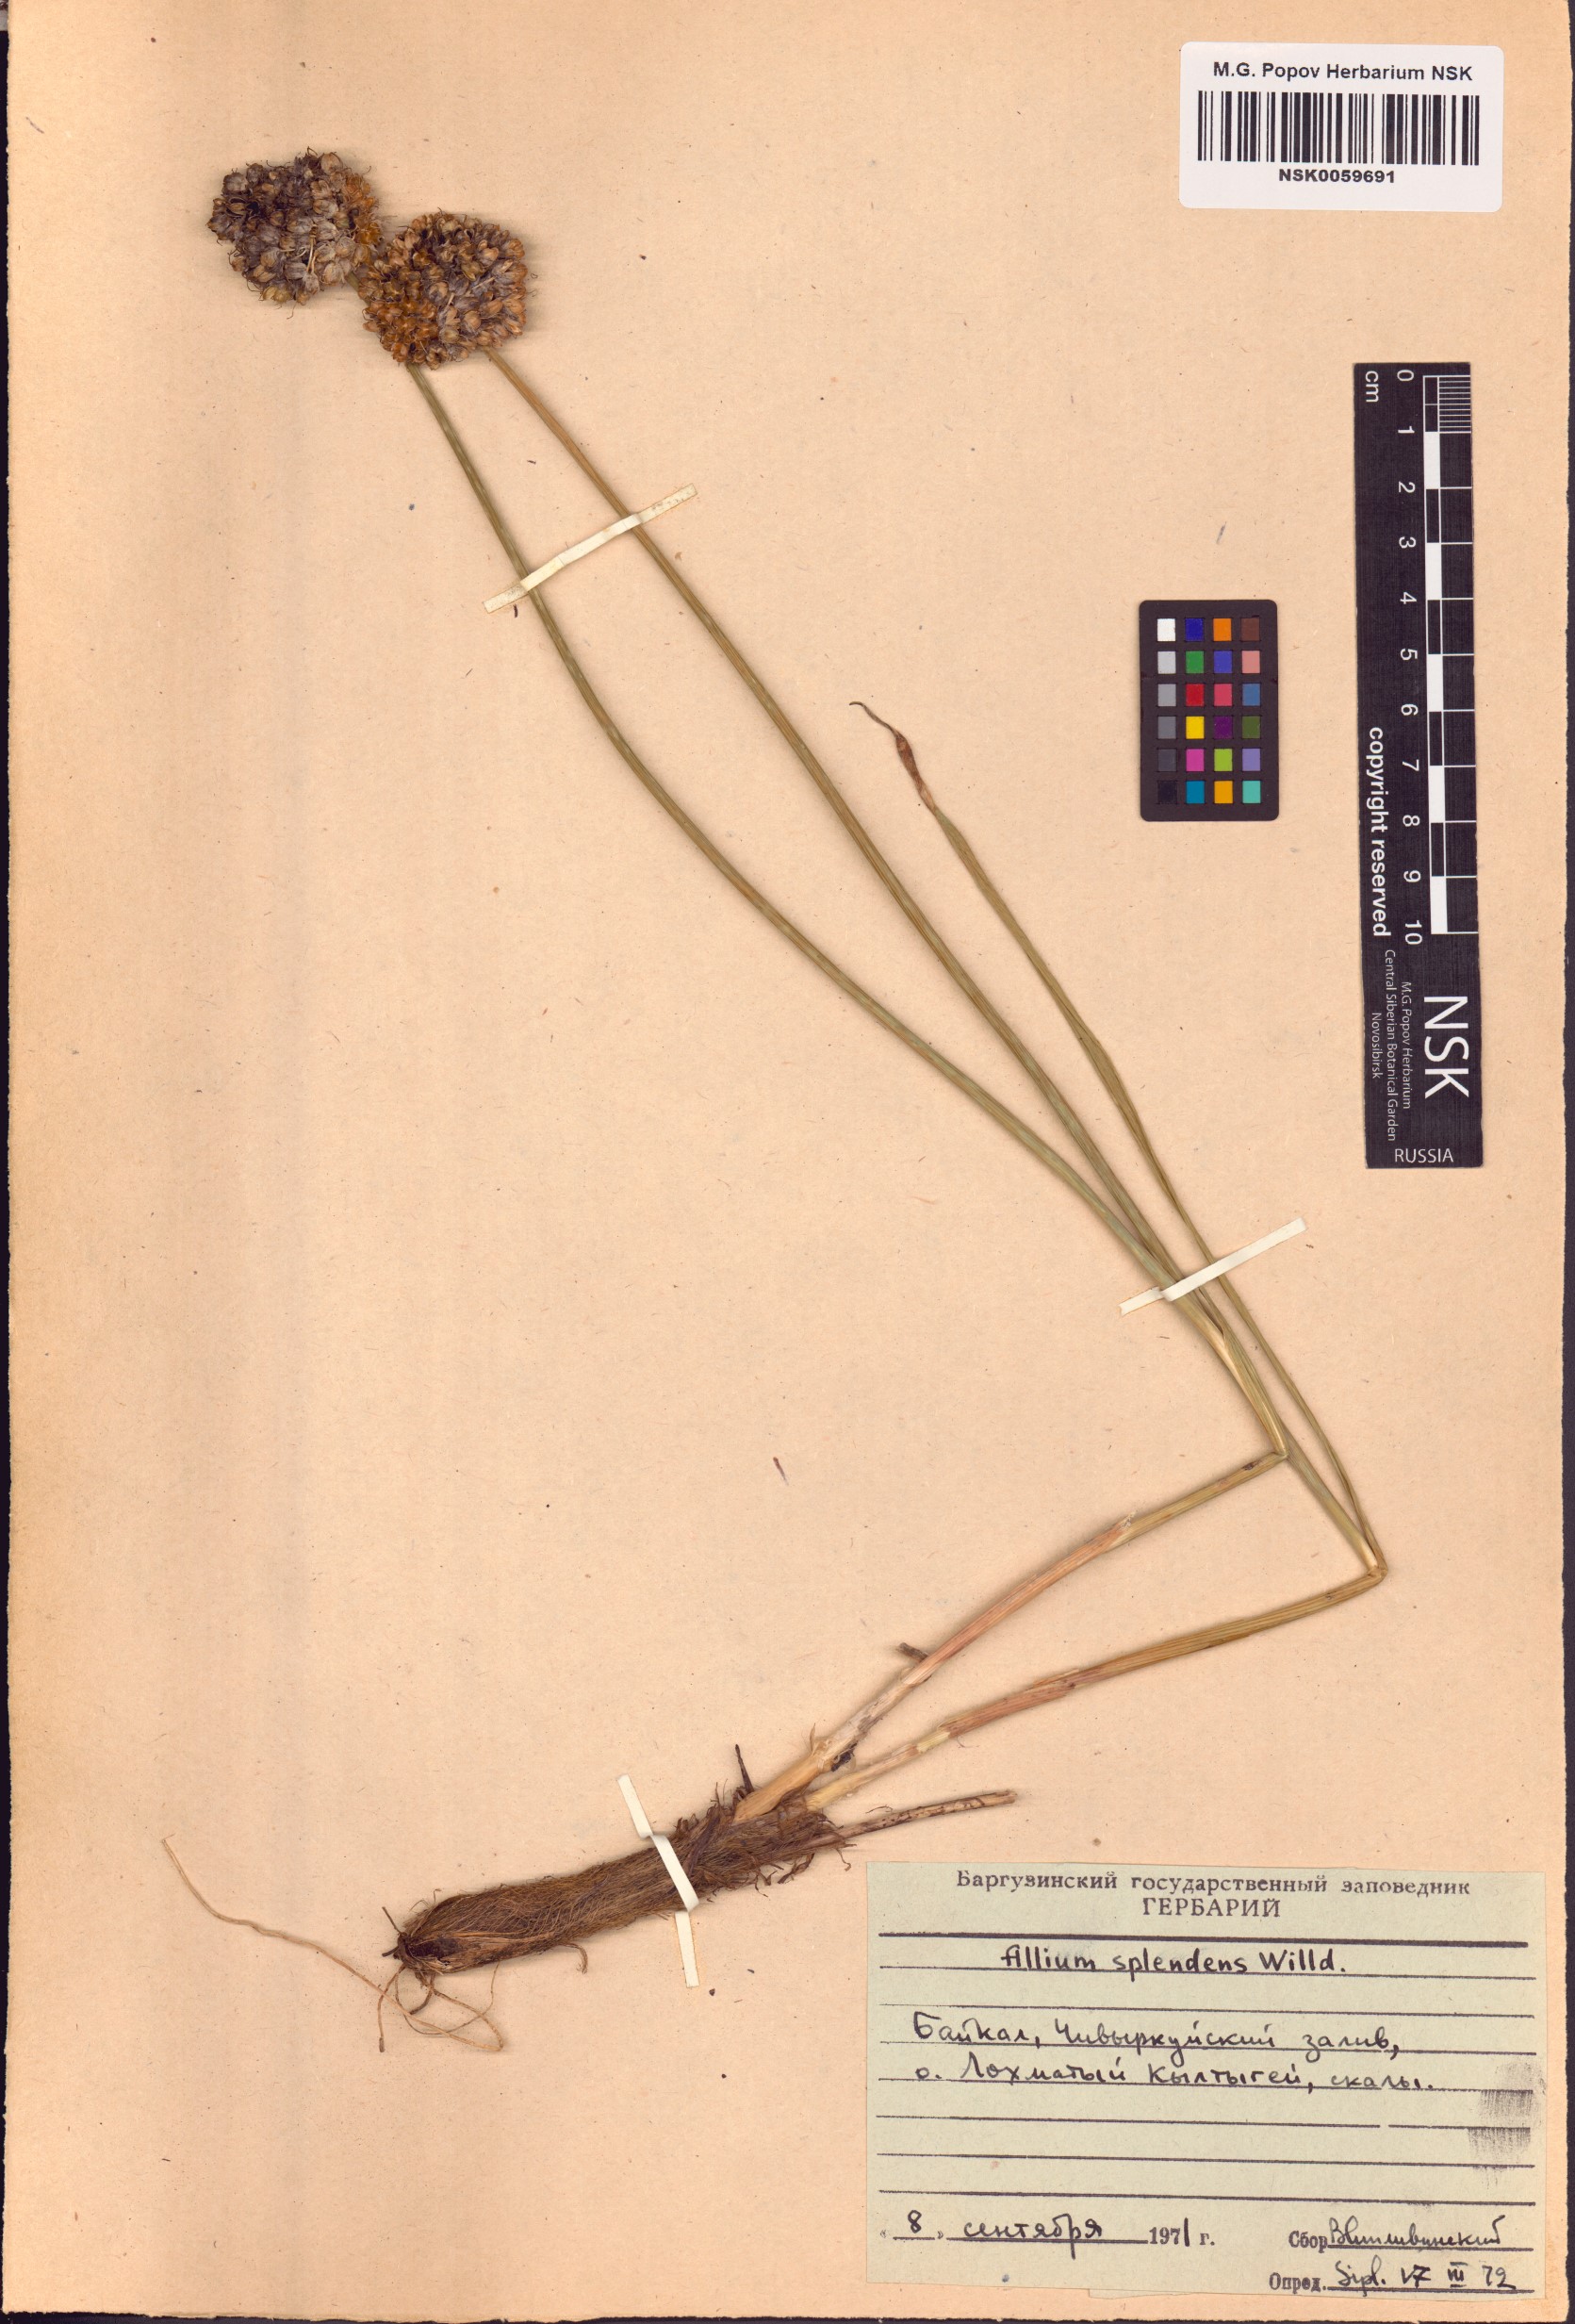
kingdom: Plantae
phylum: Tracheophyta
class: Liliopsida
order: Asparagales
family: Amaryllidaceae
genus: Allium
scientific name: Allium splendens
